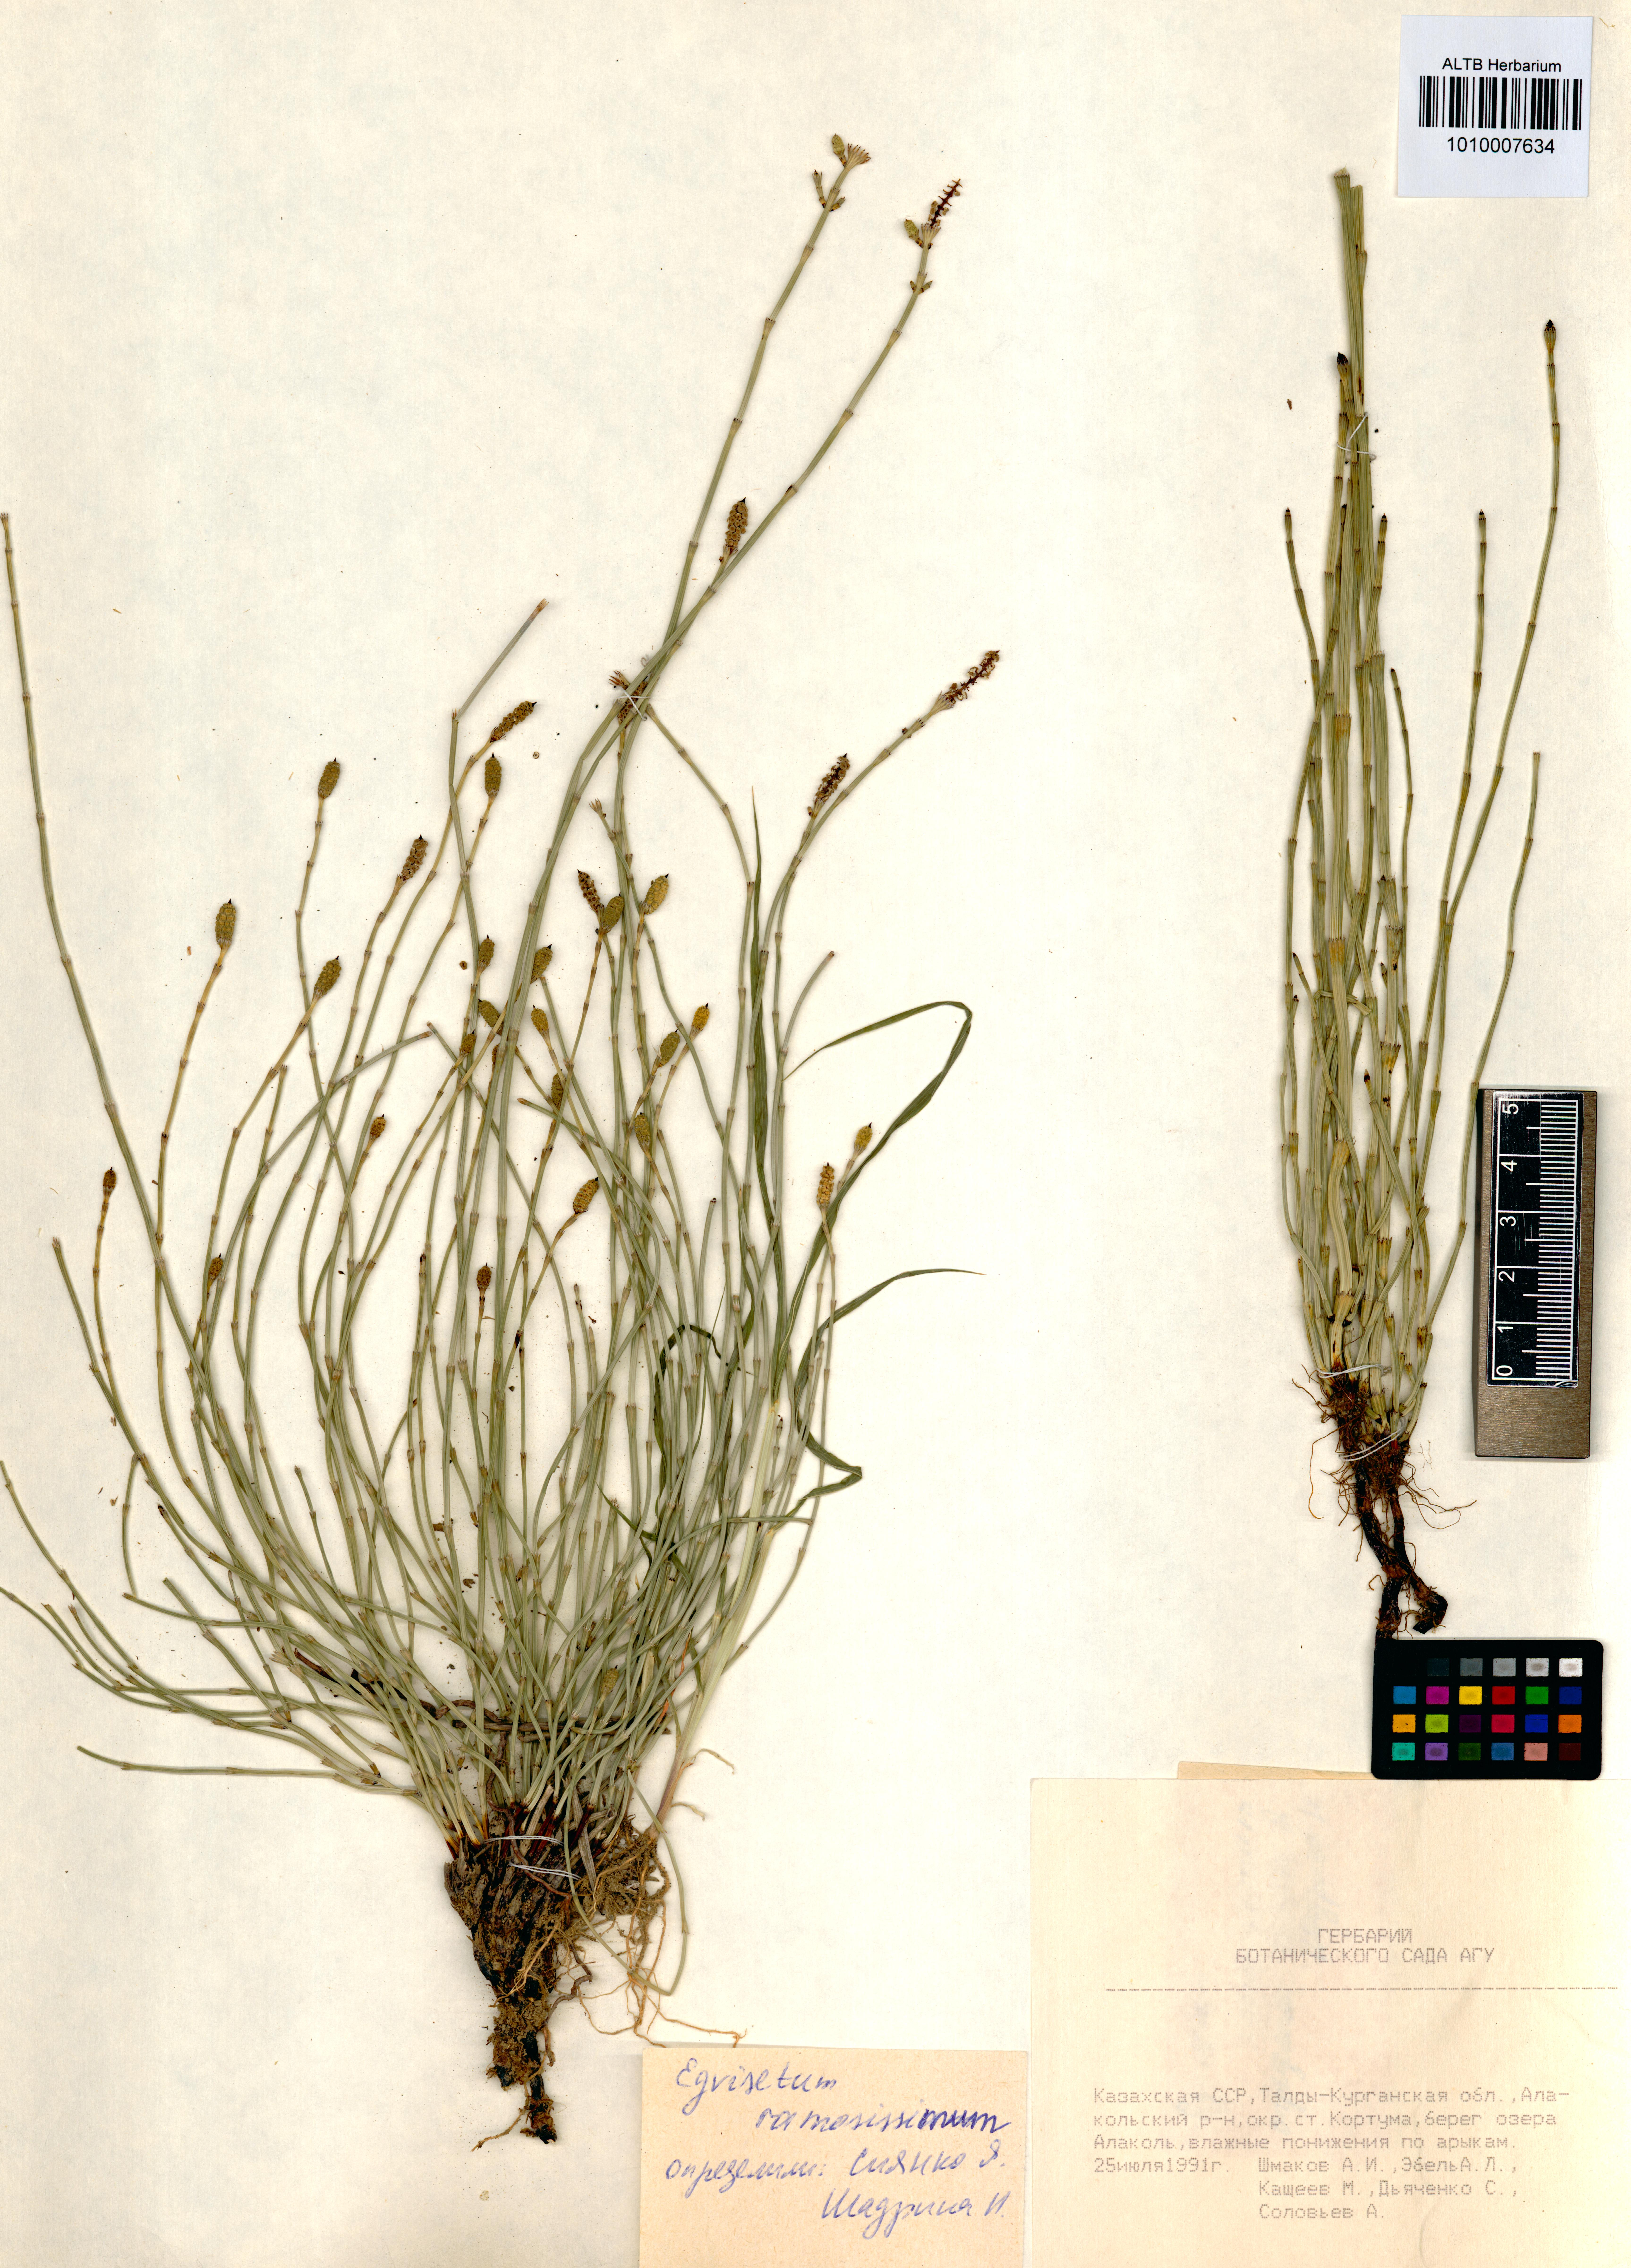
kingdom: Plantae
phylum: Tracheophyta
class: Polypodiopsida
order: Equisetales
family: Equisetaceae
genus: Equisetum
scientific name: Equisetum ramosissimum
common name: Branched horsetail
